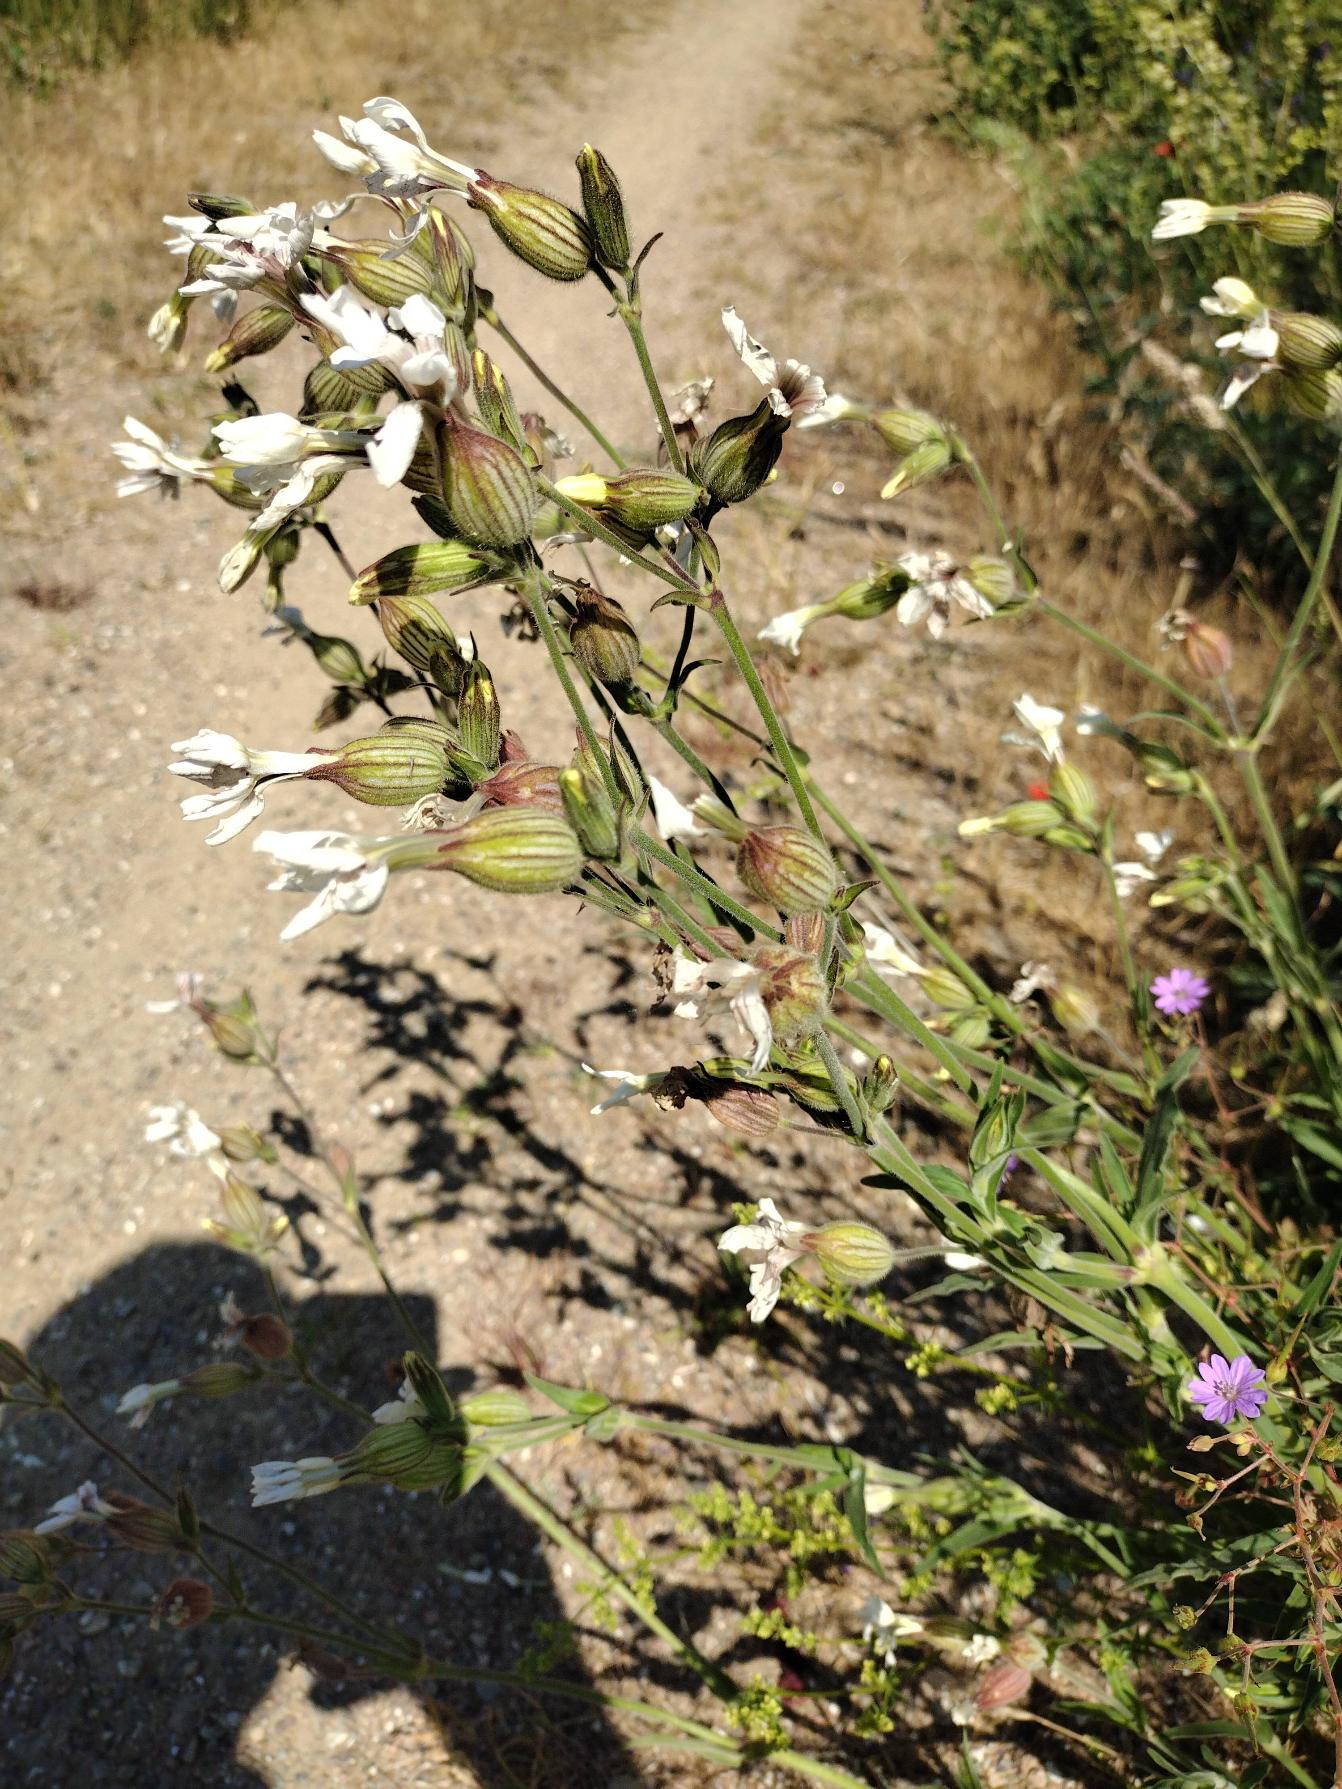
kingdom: Plantae
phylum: Tracheophyta
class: Magnoliopsida
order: Caryophyllales
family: Caryophyllaceae
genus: Silene
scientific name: Silene latifolia
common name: Aftenpragtstjerne
